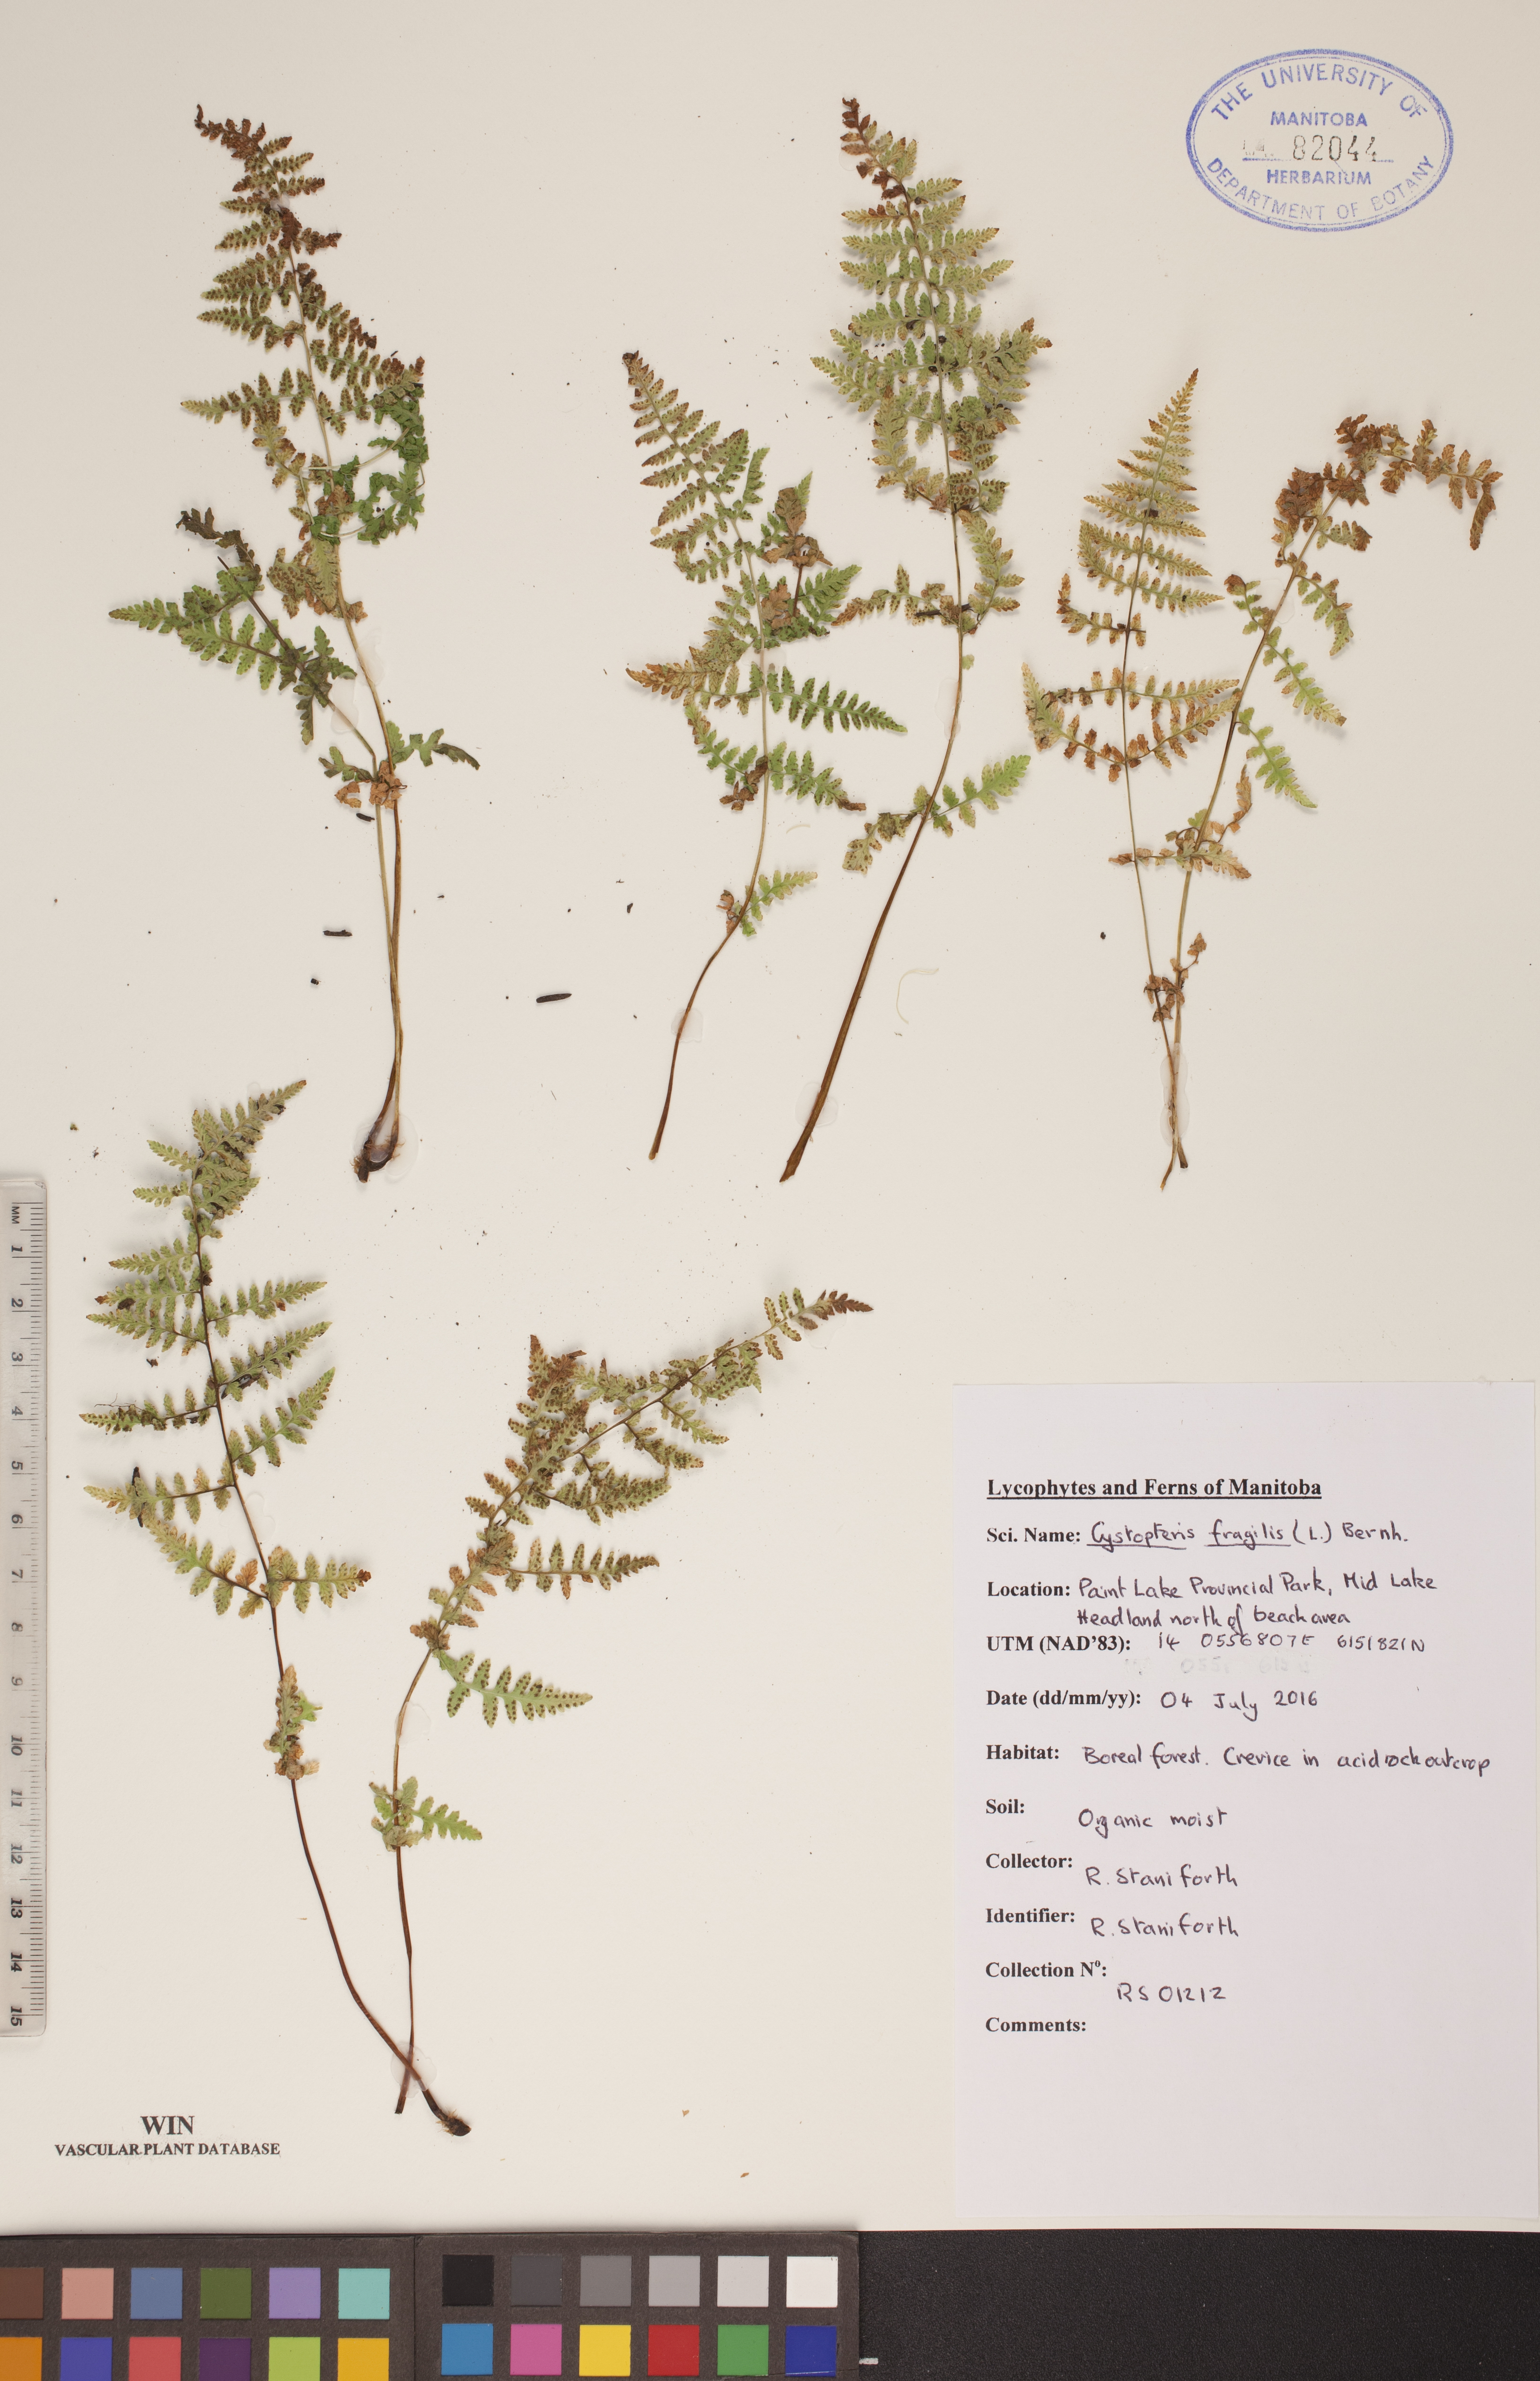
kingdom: Plantae
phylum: Tracheophyta
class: Polypodiopsida
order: Polypodiales
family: Cystopteridaceae
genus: Cystopteris
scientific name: Cystopteris fragilis
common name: Brittle bladder fern
